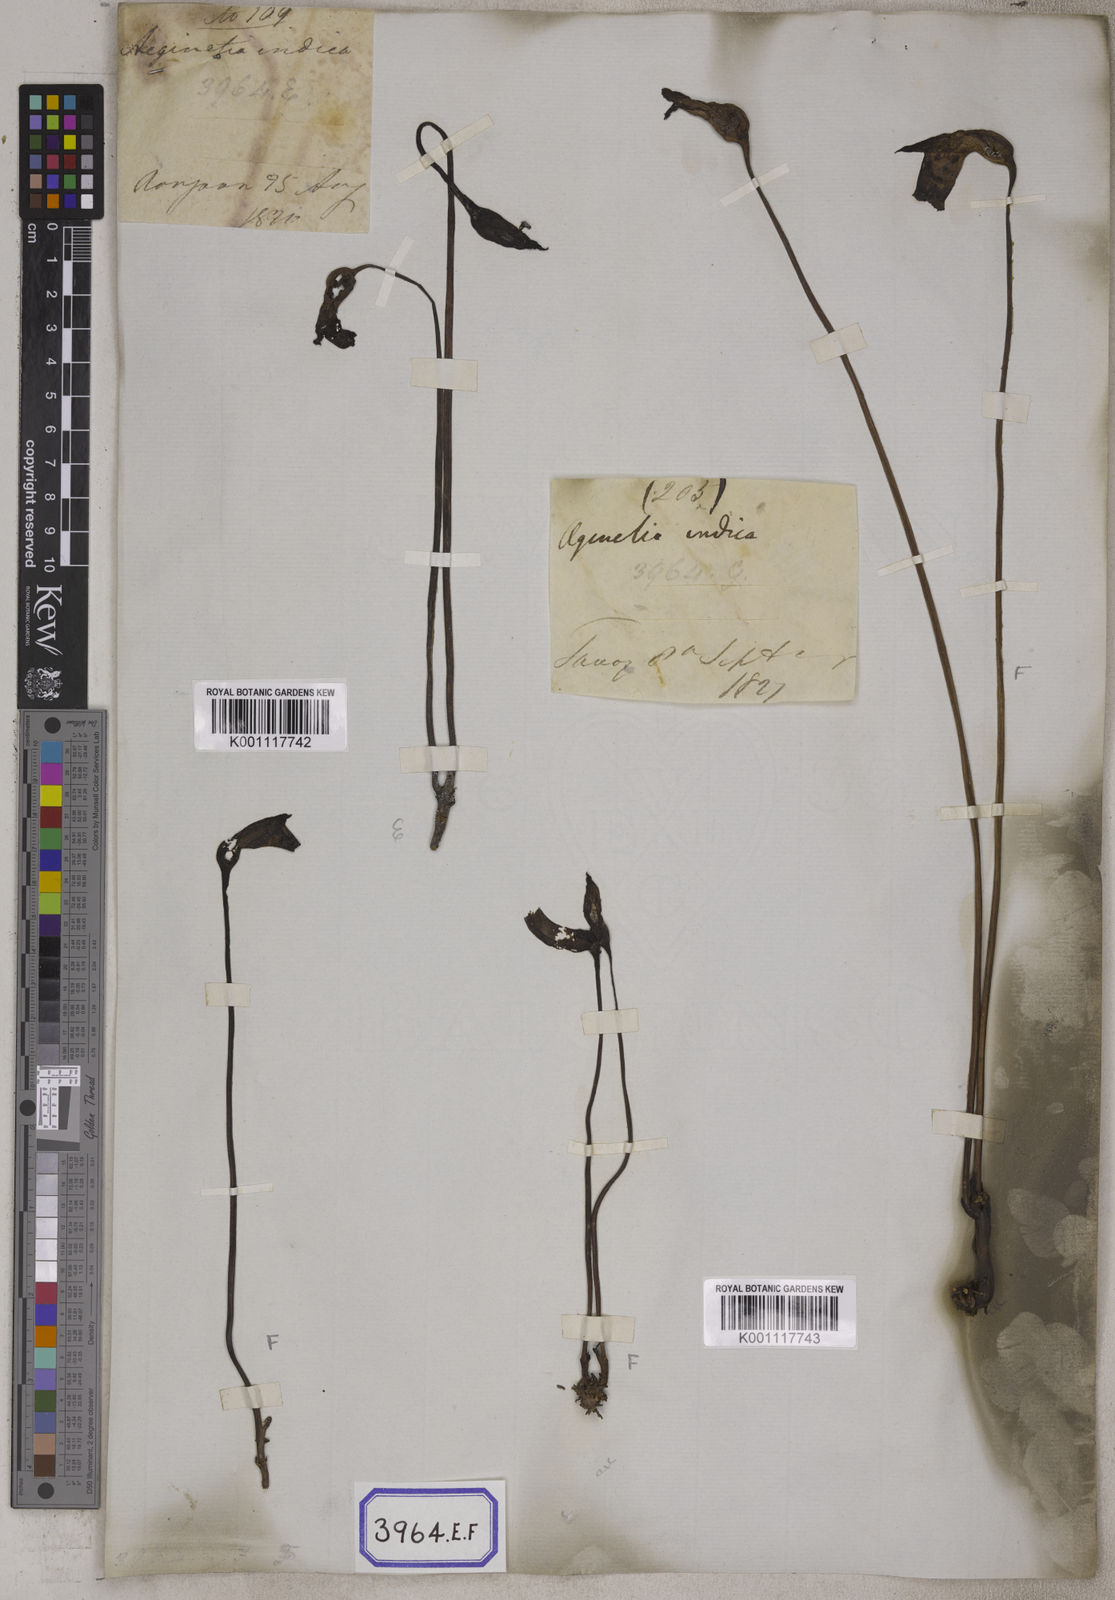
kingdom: Plantae
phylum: Tracheophyta
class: Magnoliopsida
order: Lamiales
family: Orobanchaceae
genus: Aeginetia
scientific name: Aeginetia
